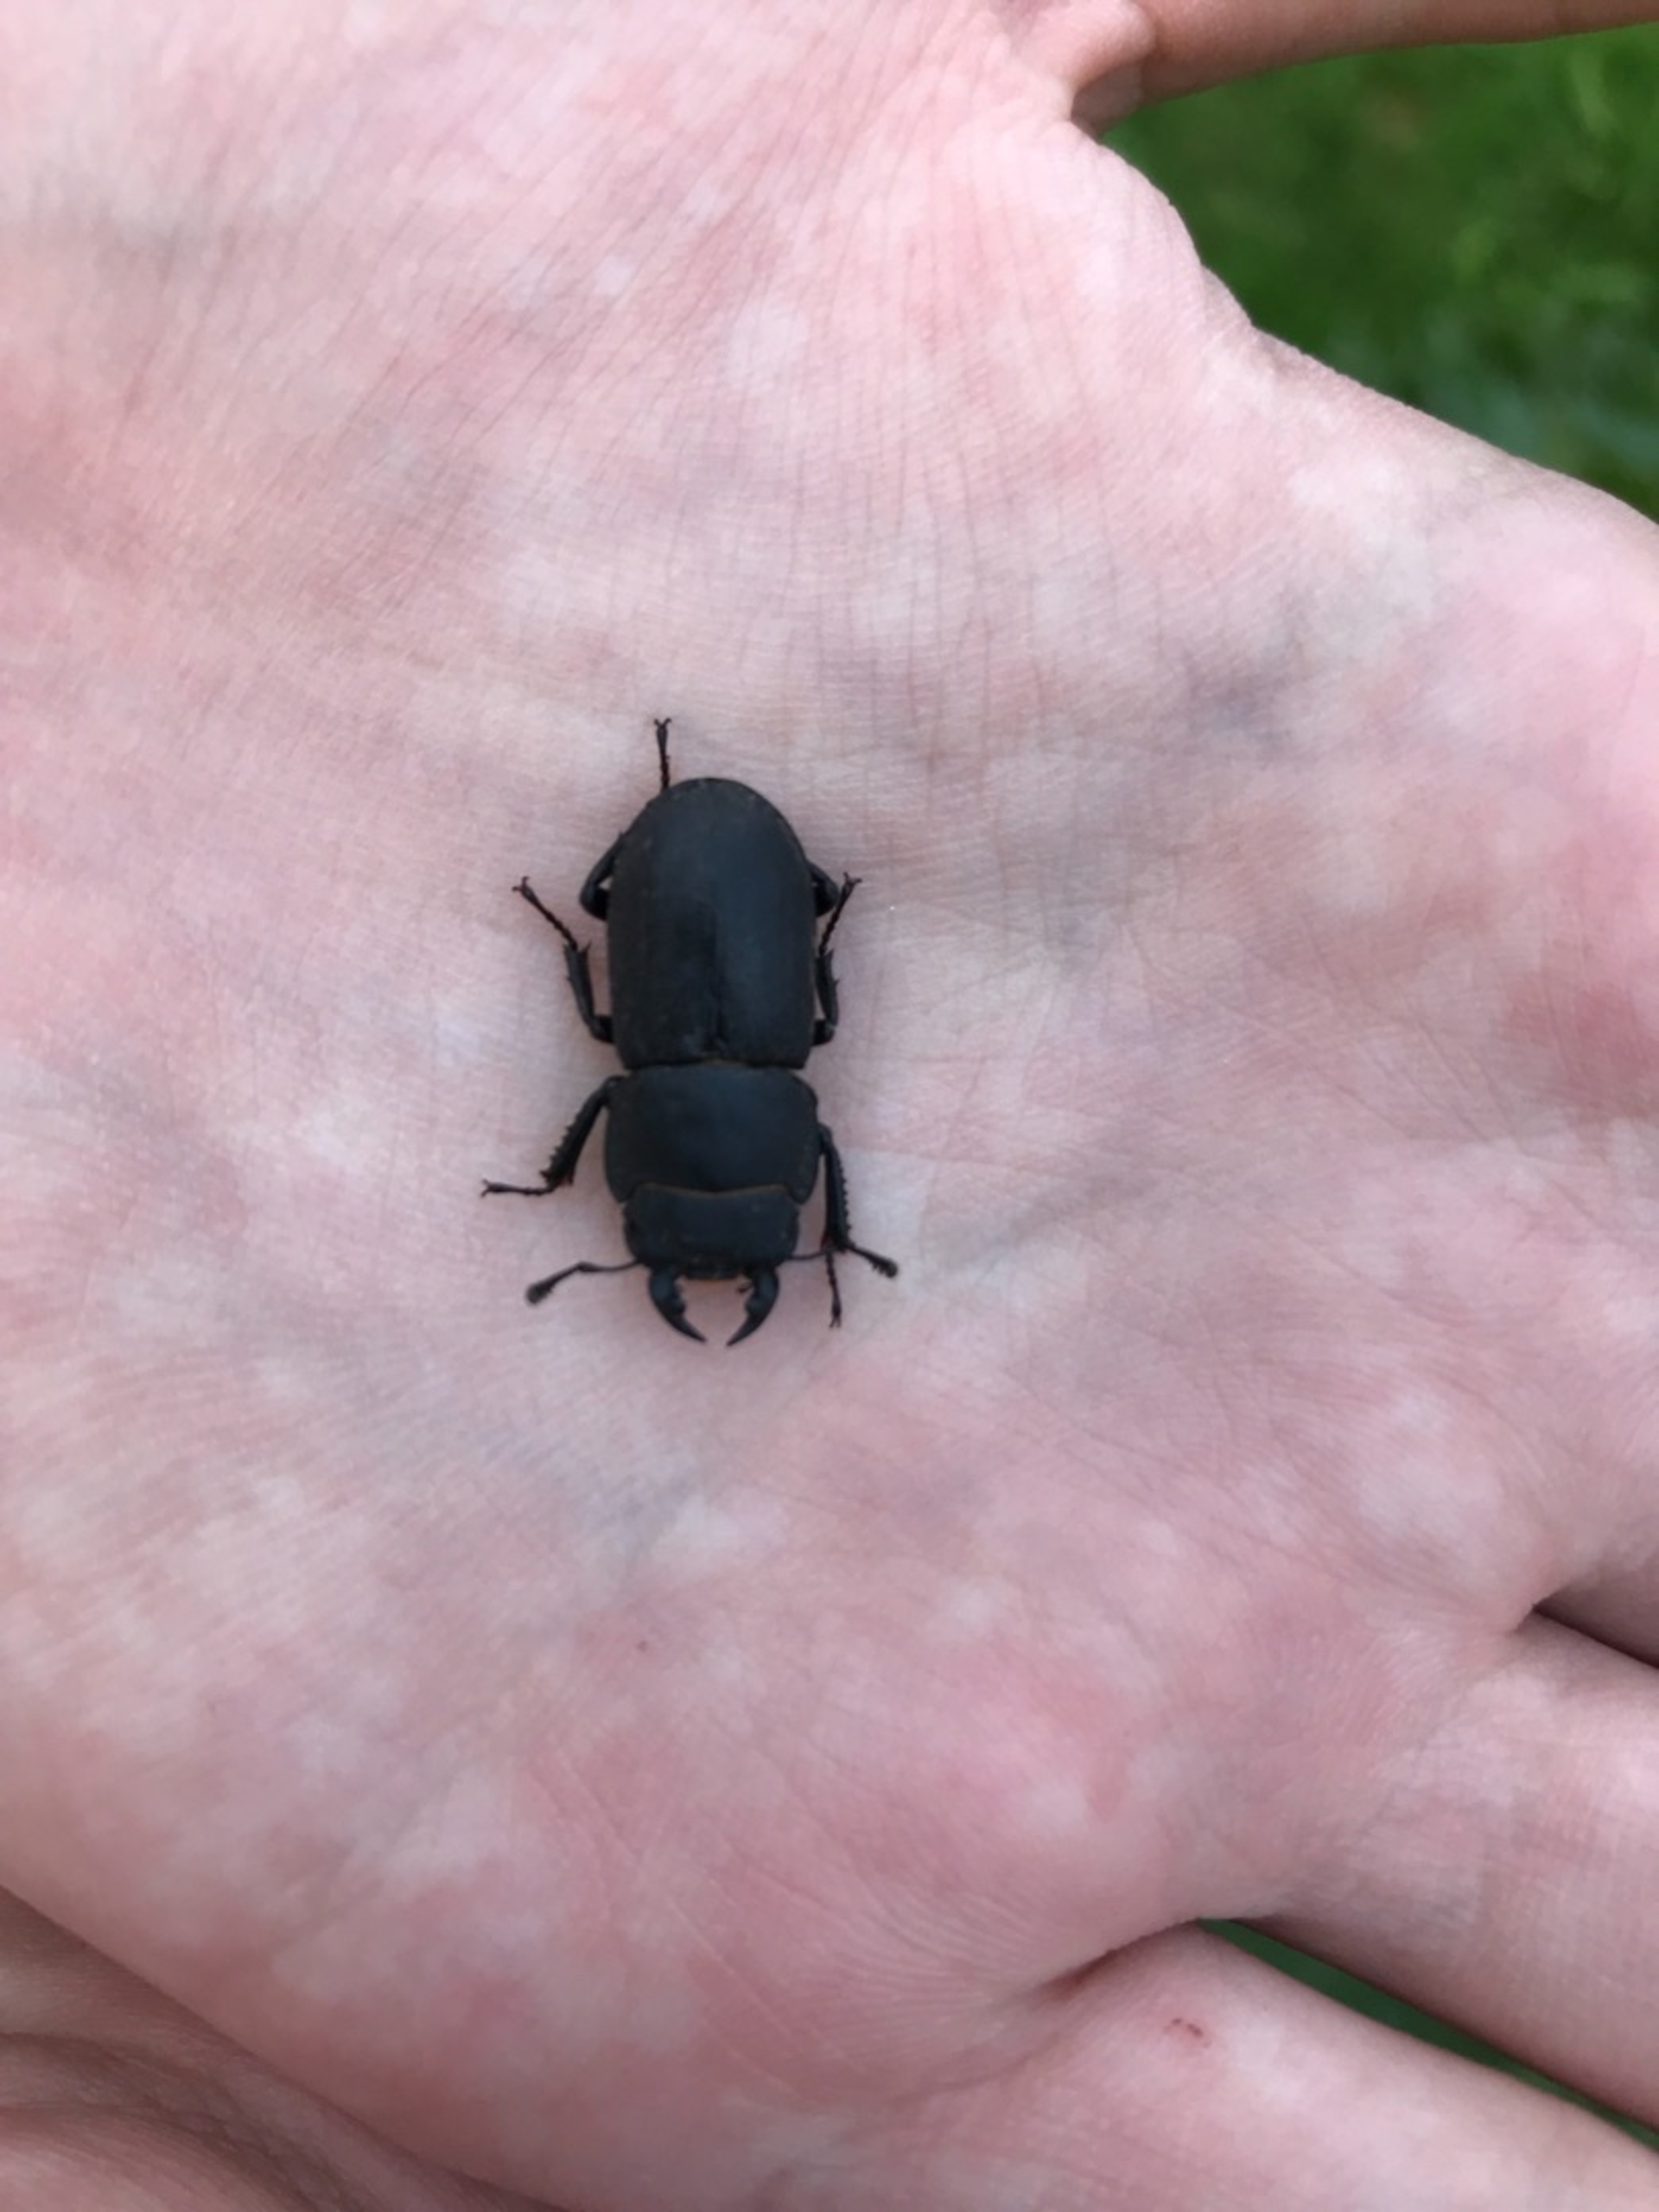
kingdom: Animalia
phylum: Arthropoda
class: Insecta
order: Coleoptera
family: Lucanidae
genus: Dorcus
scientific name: Dorcus parallelipipedus
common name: Bøghjort
